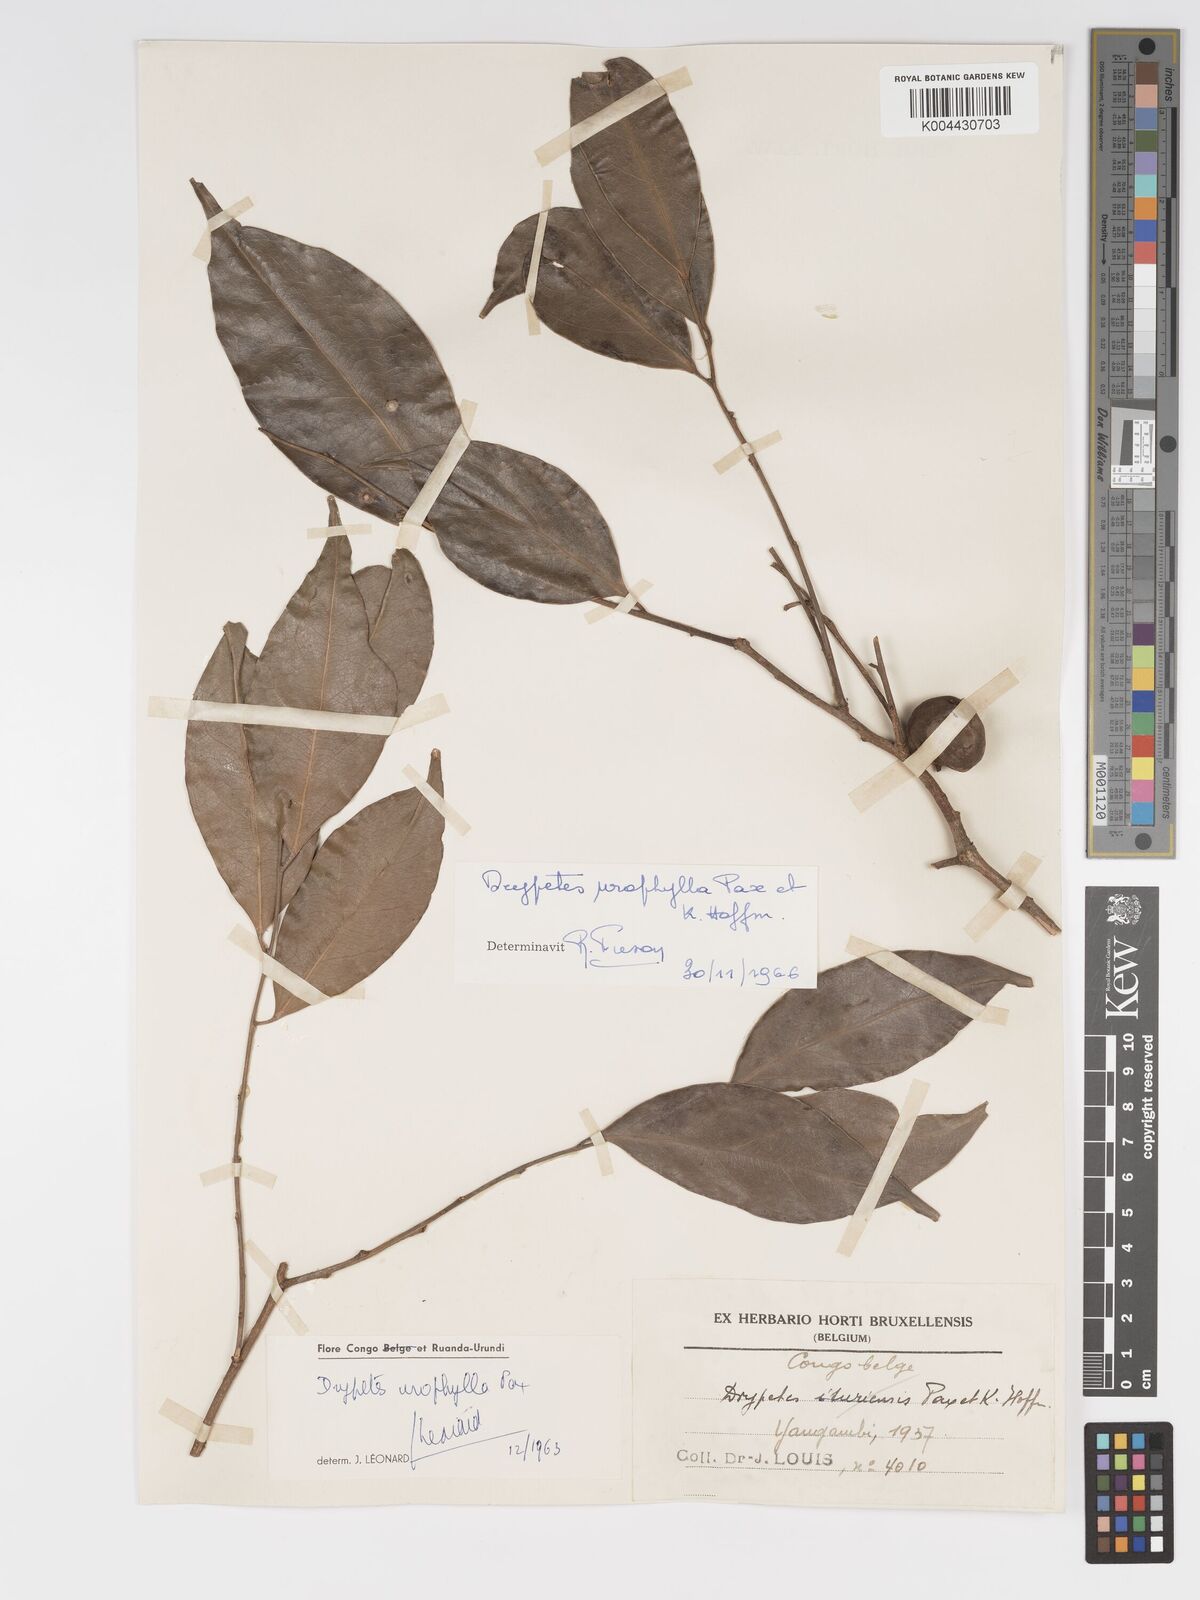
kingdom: Plantae
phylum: Tracheophyta
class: Magnoliopsida
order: Malpighiales
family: Putranjivaceae
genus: Drypetes
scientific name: Drypetes leonensis
